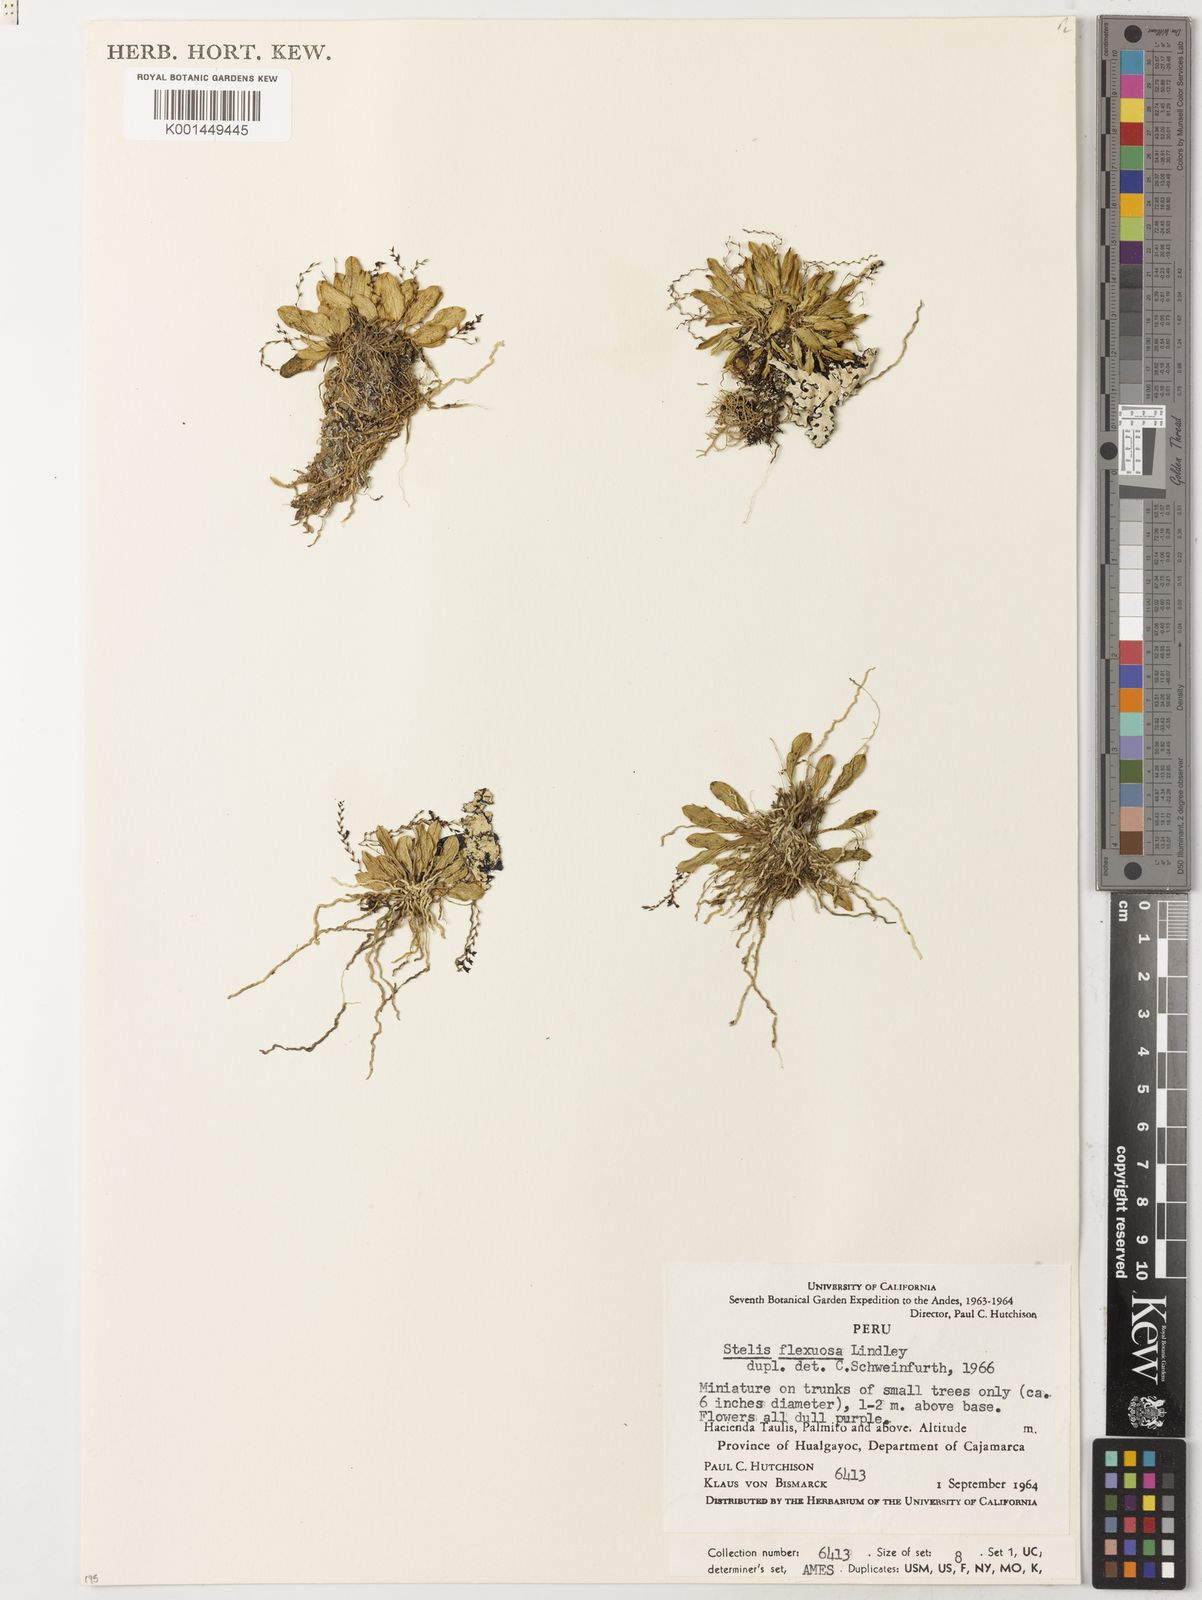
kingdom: Plantae
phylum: Tracheophyta
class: Liliopsida
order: Asparagales
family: Orchidaceae
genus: Stelis
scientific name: Stelis concinna
